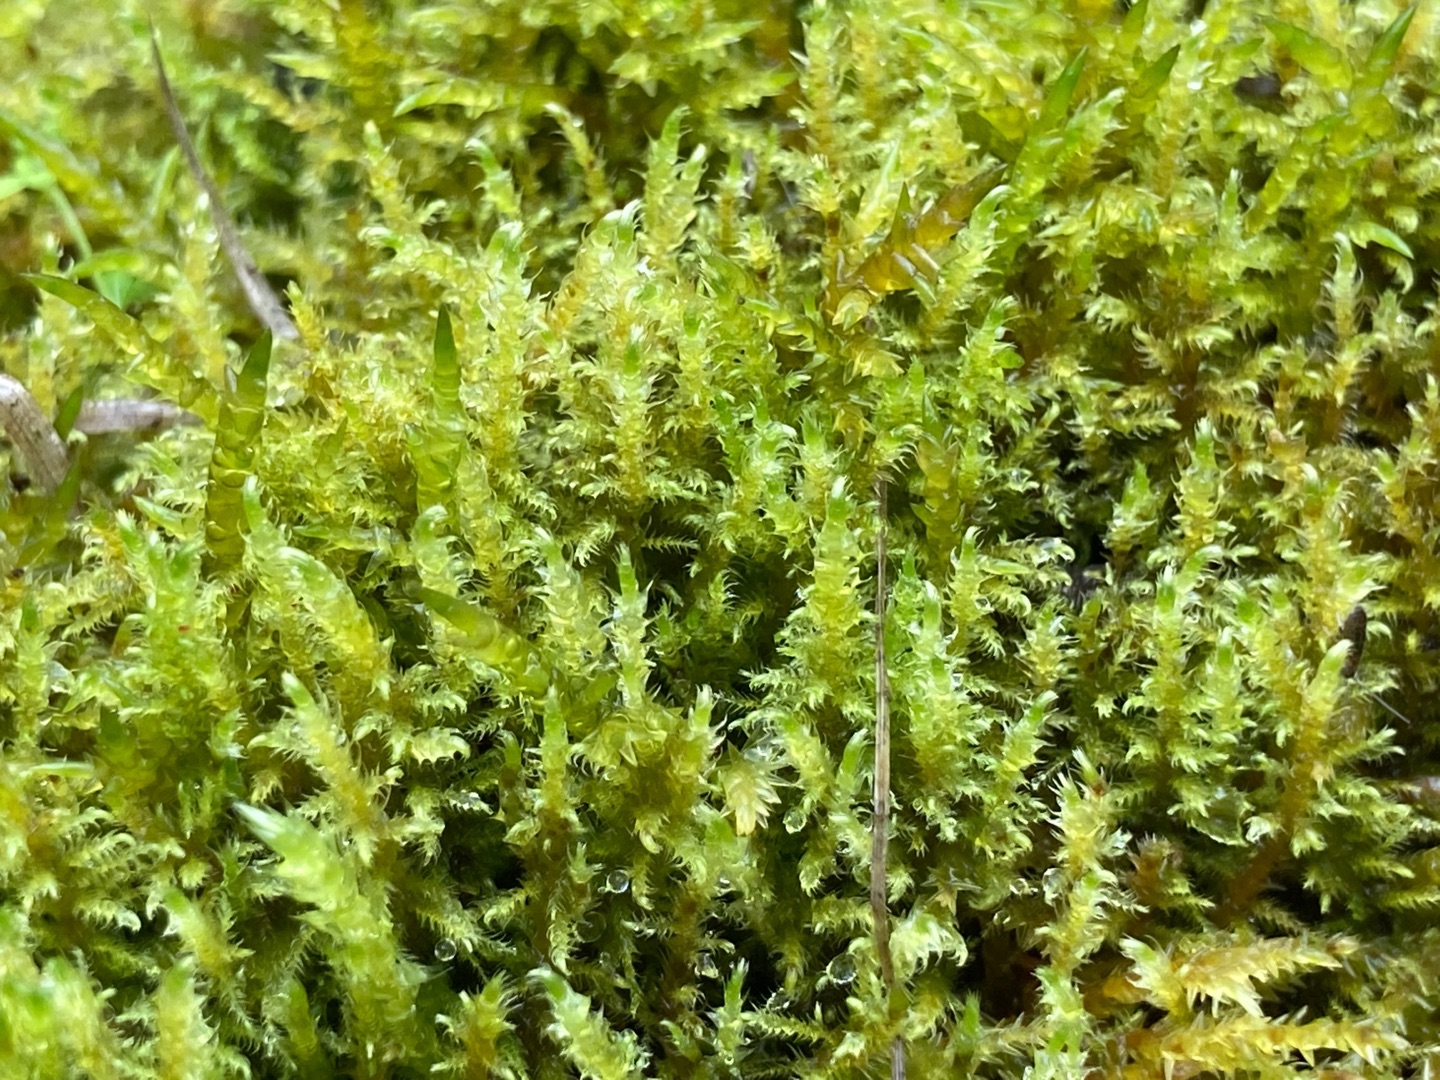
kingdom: Plantae
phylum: Bryophyta
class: Bryopsida
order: Hypnales
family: Amblystegiaceae
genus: Cratoneuron
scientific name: Cratoneuron filicinum
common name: Grøn eremitmos
